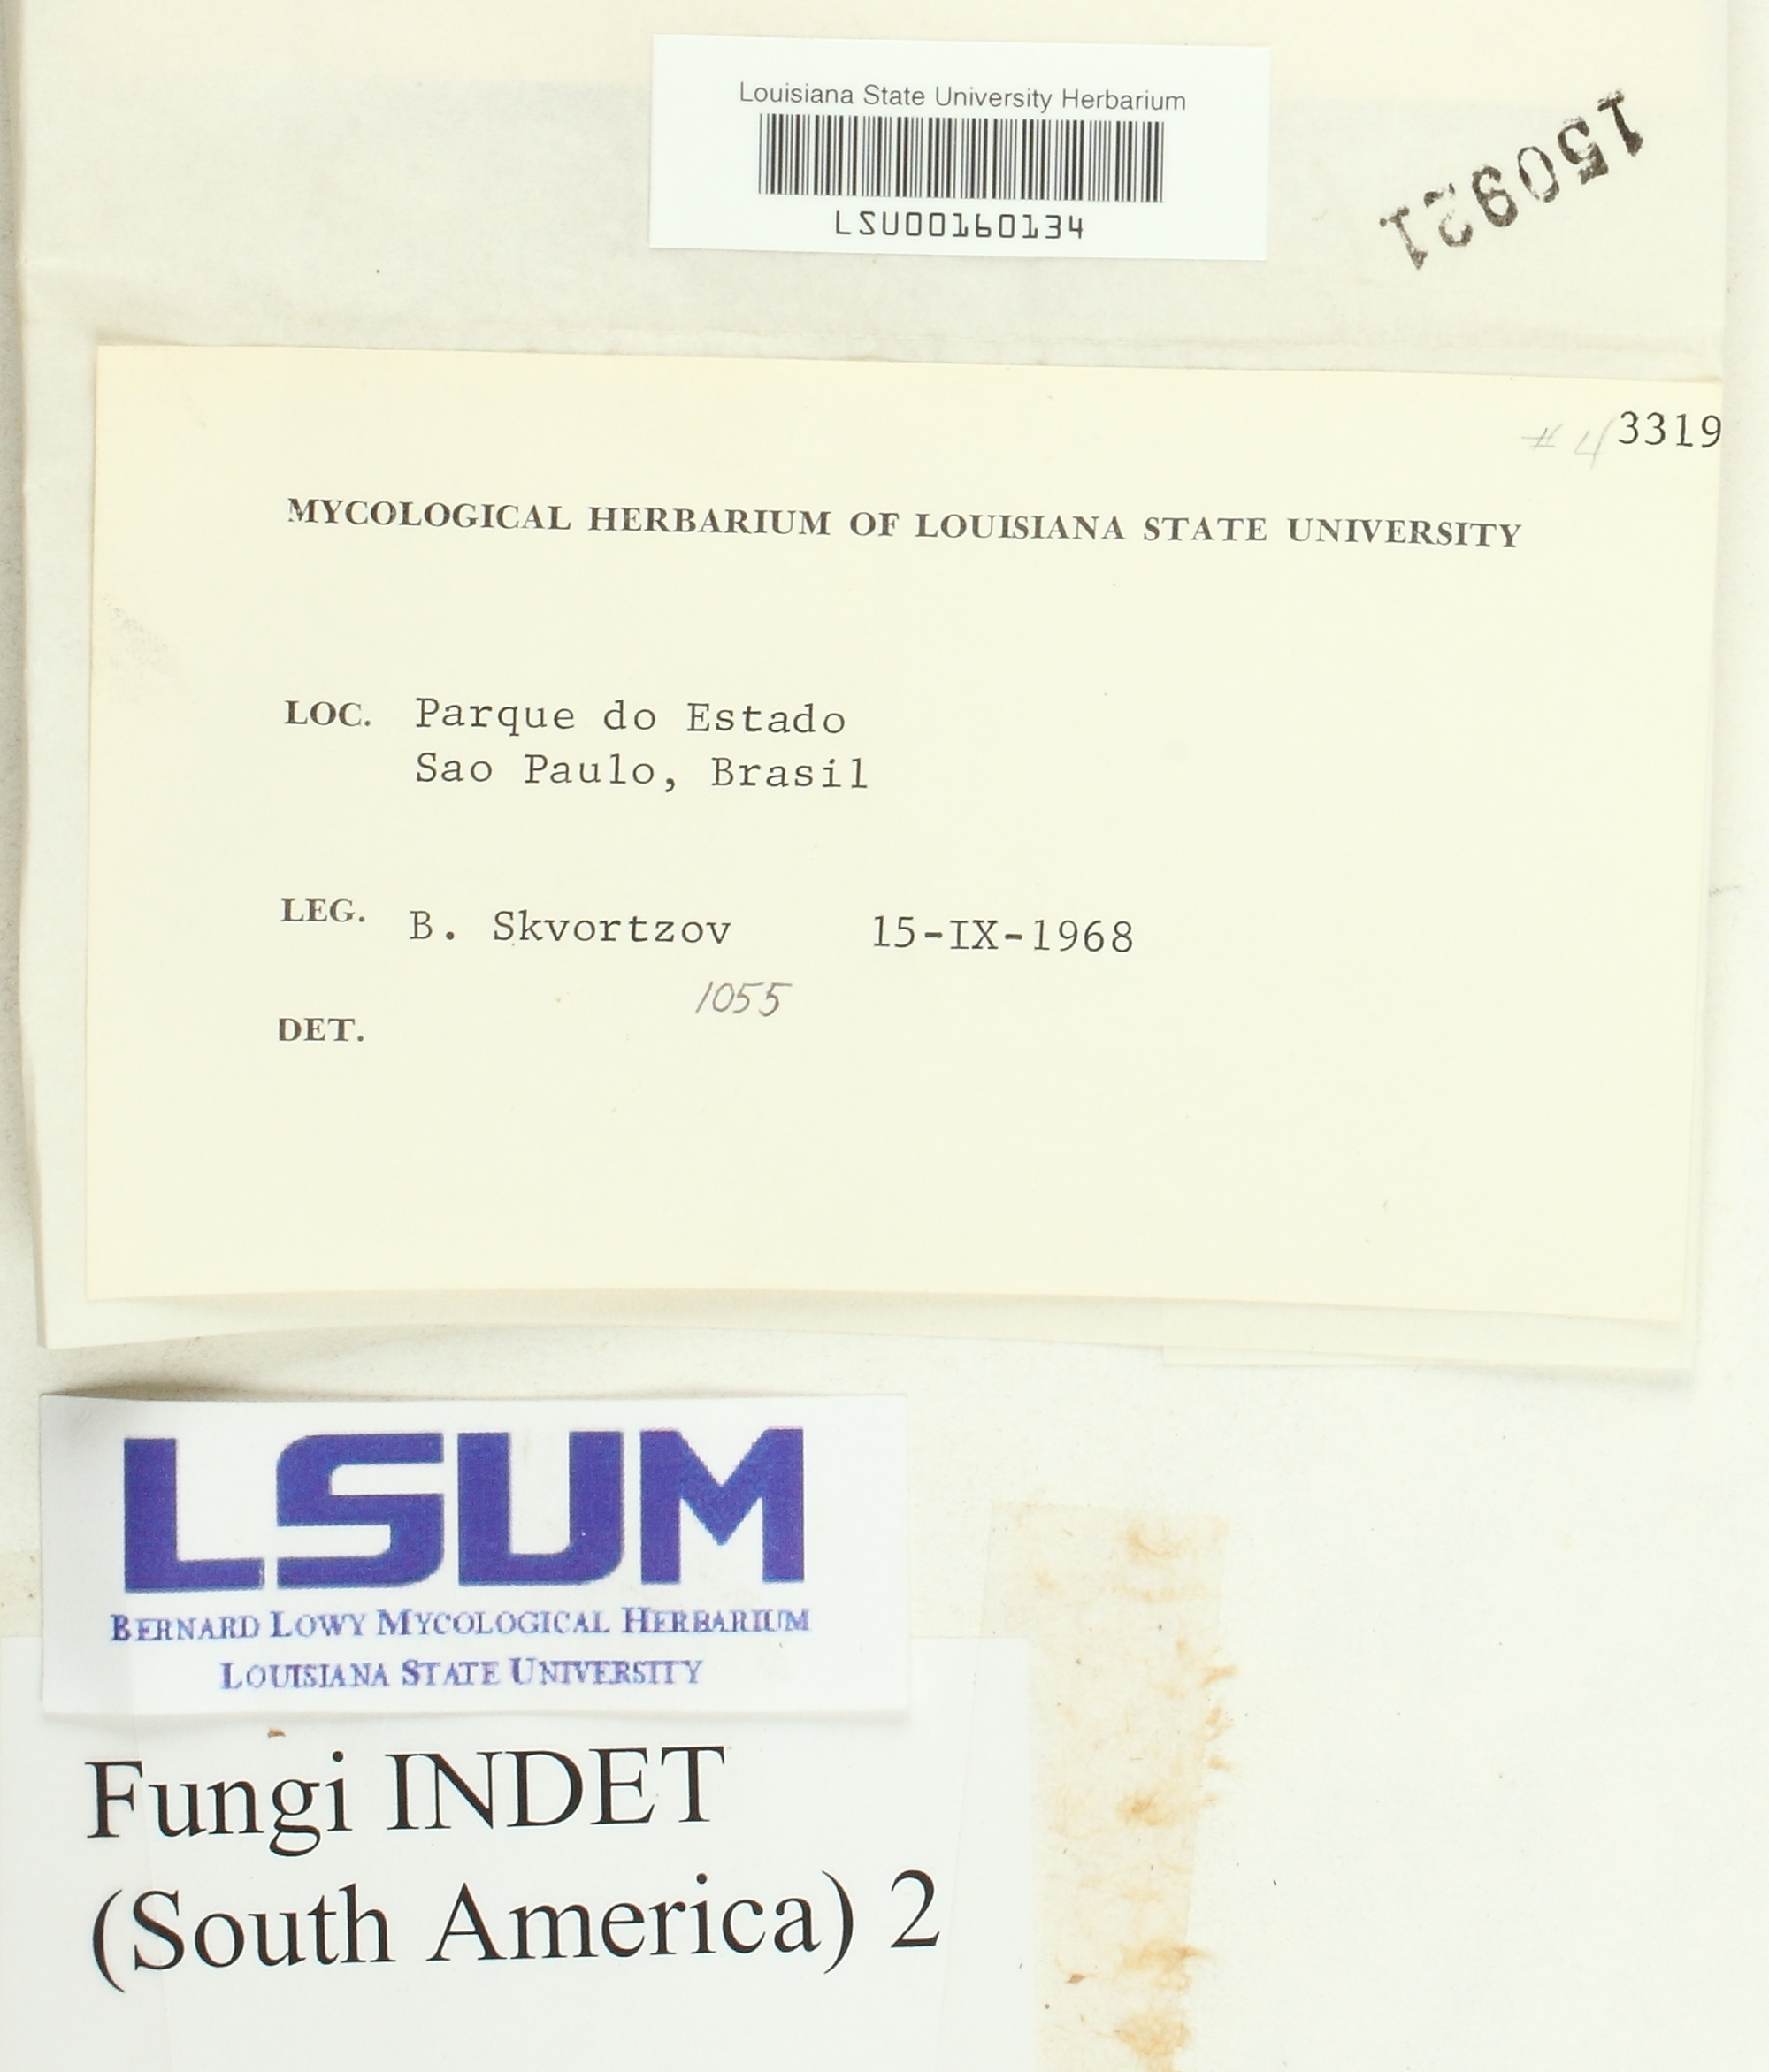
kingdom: Fungi
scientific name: Fungi
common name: Fungi
